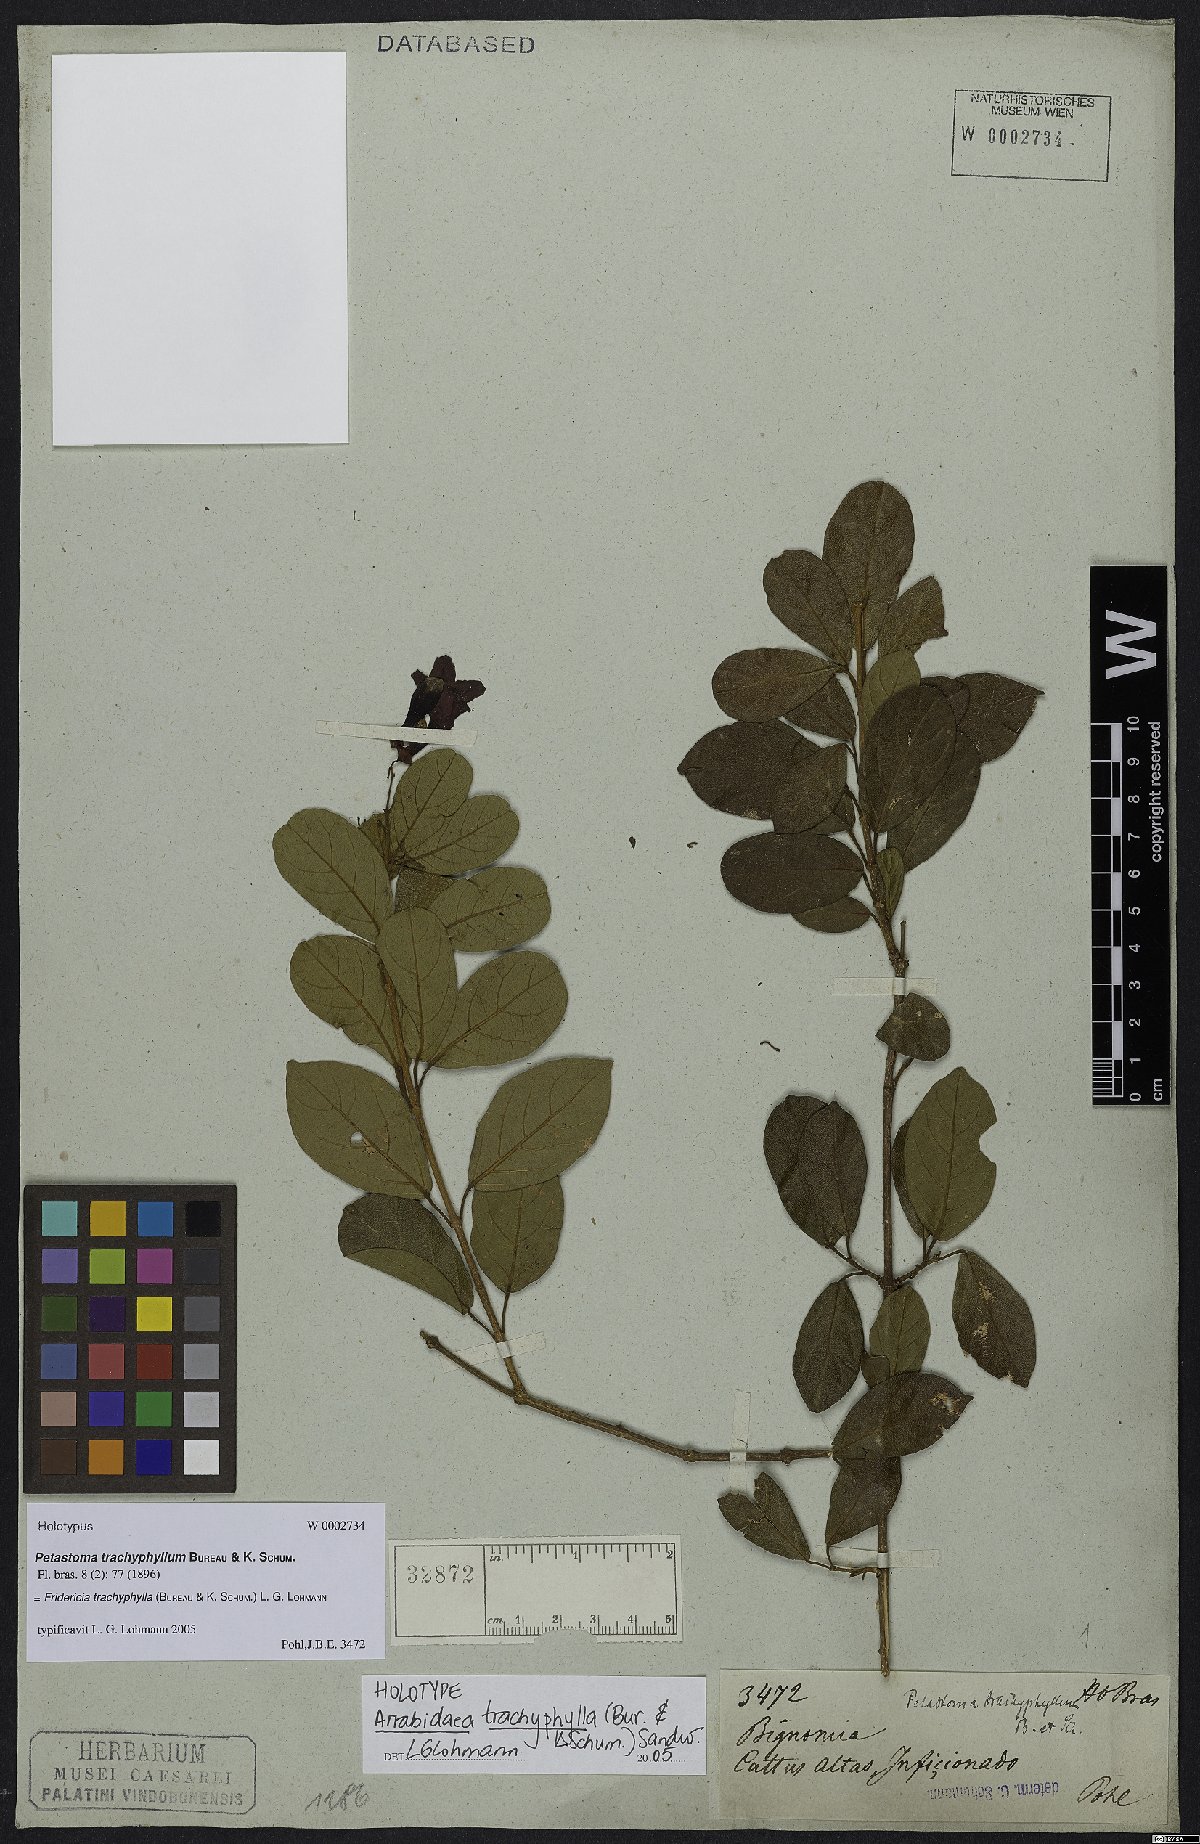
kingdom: Plantae
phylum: Tracheophyta
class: Magnoliopsida
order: Lamiales
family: Bignoniaceae
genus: Fridericia
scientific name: Fridericia samydoides
